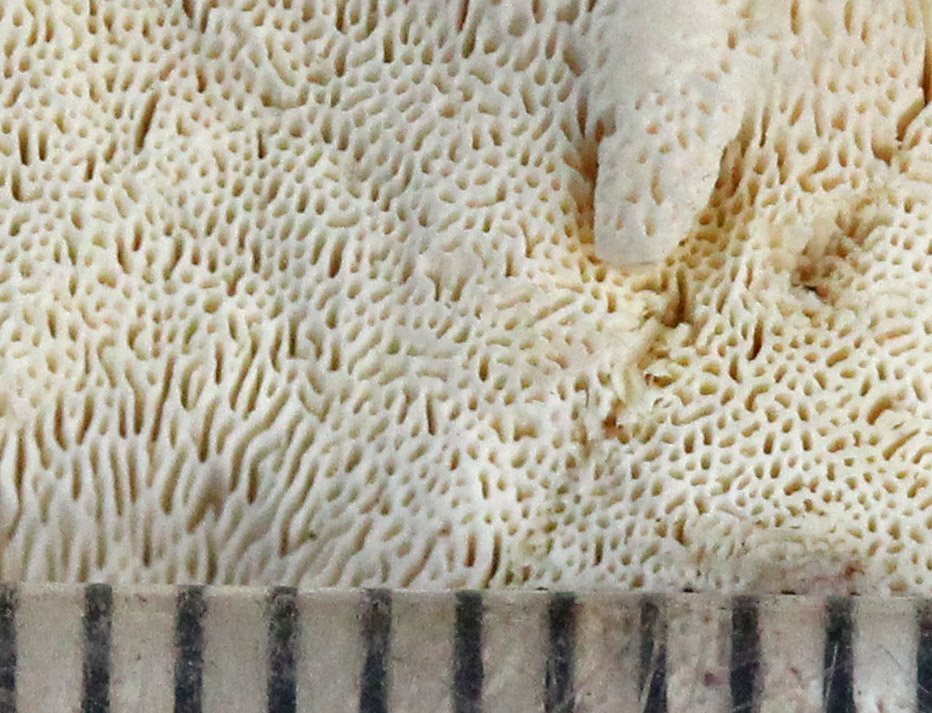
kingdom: Fungi
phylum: Basidiomycota
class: Agaricomycetes
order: Polyporales
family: Fomitopsidaceae
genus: Daedalea
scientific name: Daedalea xantha
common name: gul sejporesvamp
